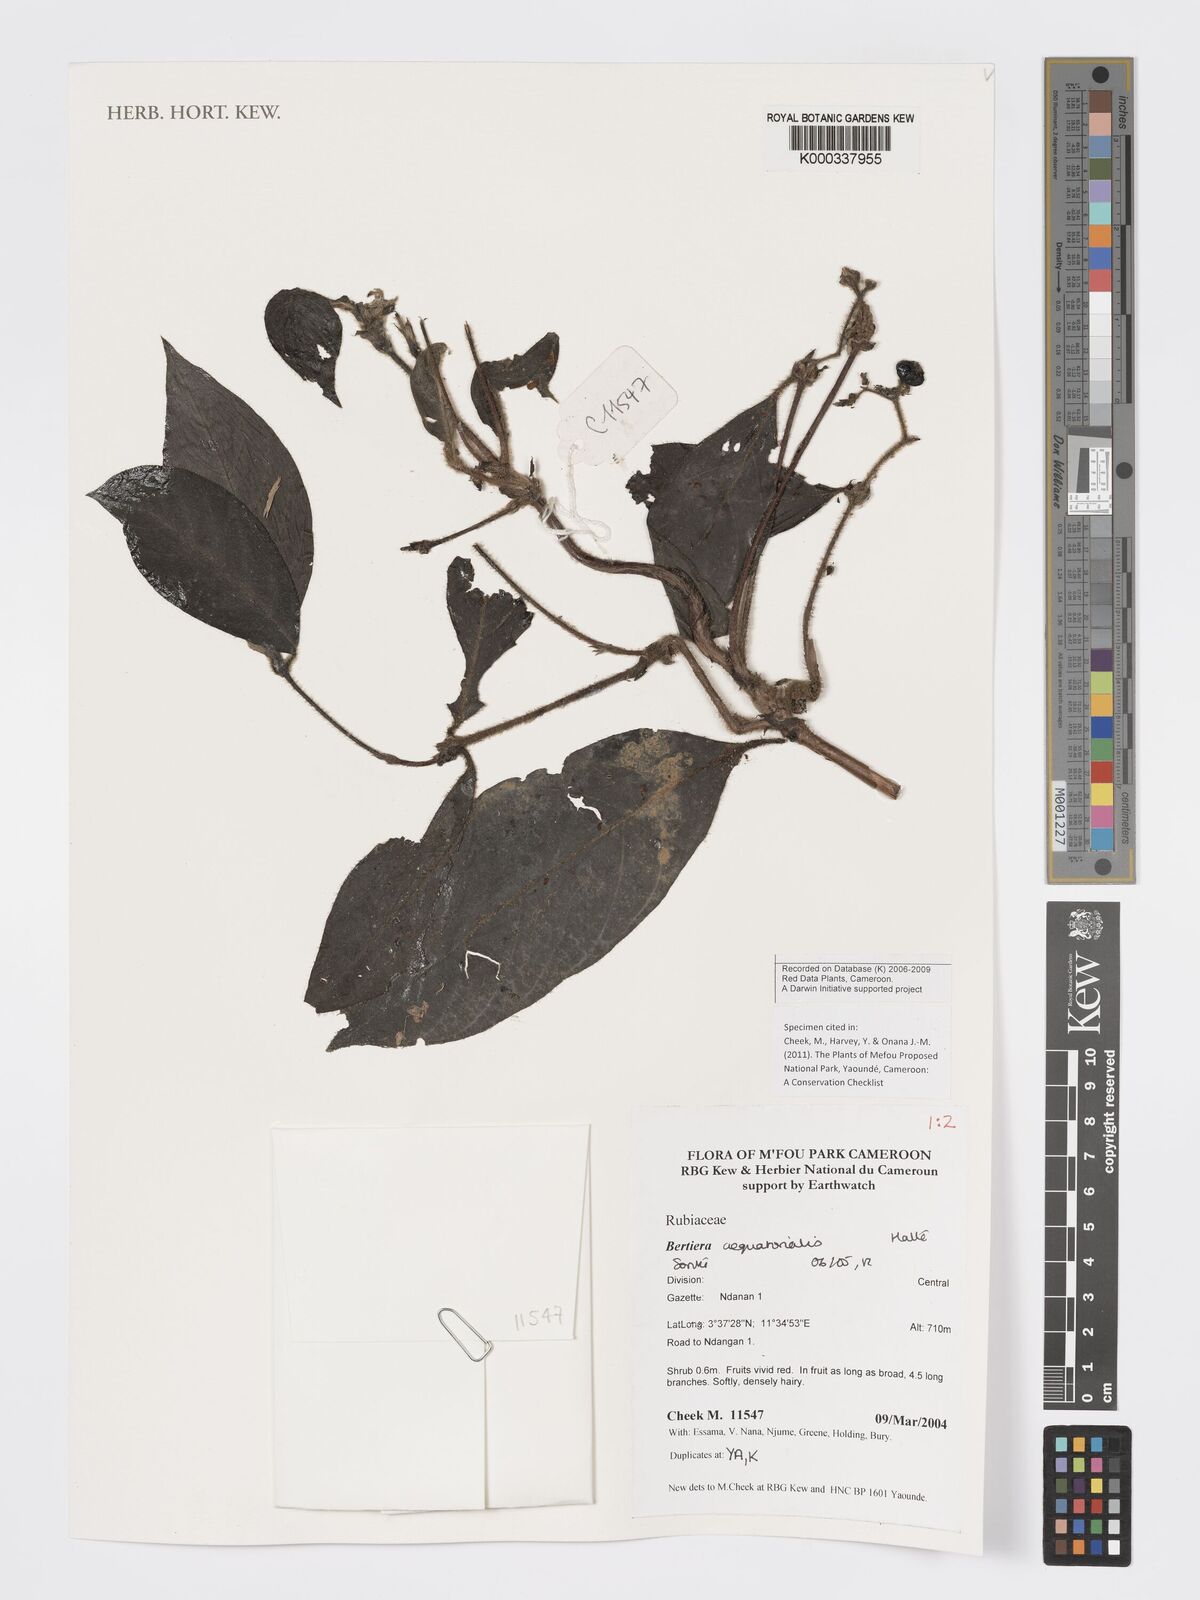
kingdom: Plantae
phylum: Tracheophyta
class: Magnoliopsida
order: Gentianales
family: Rubiaceae
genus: Bertiera
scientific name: Bertiera
